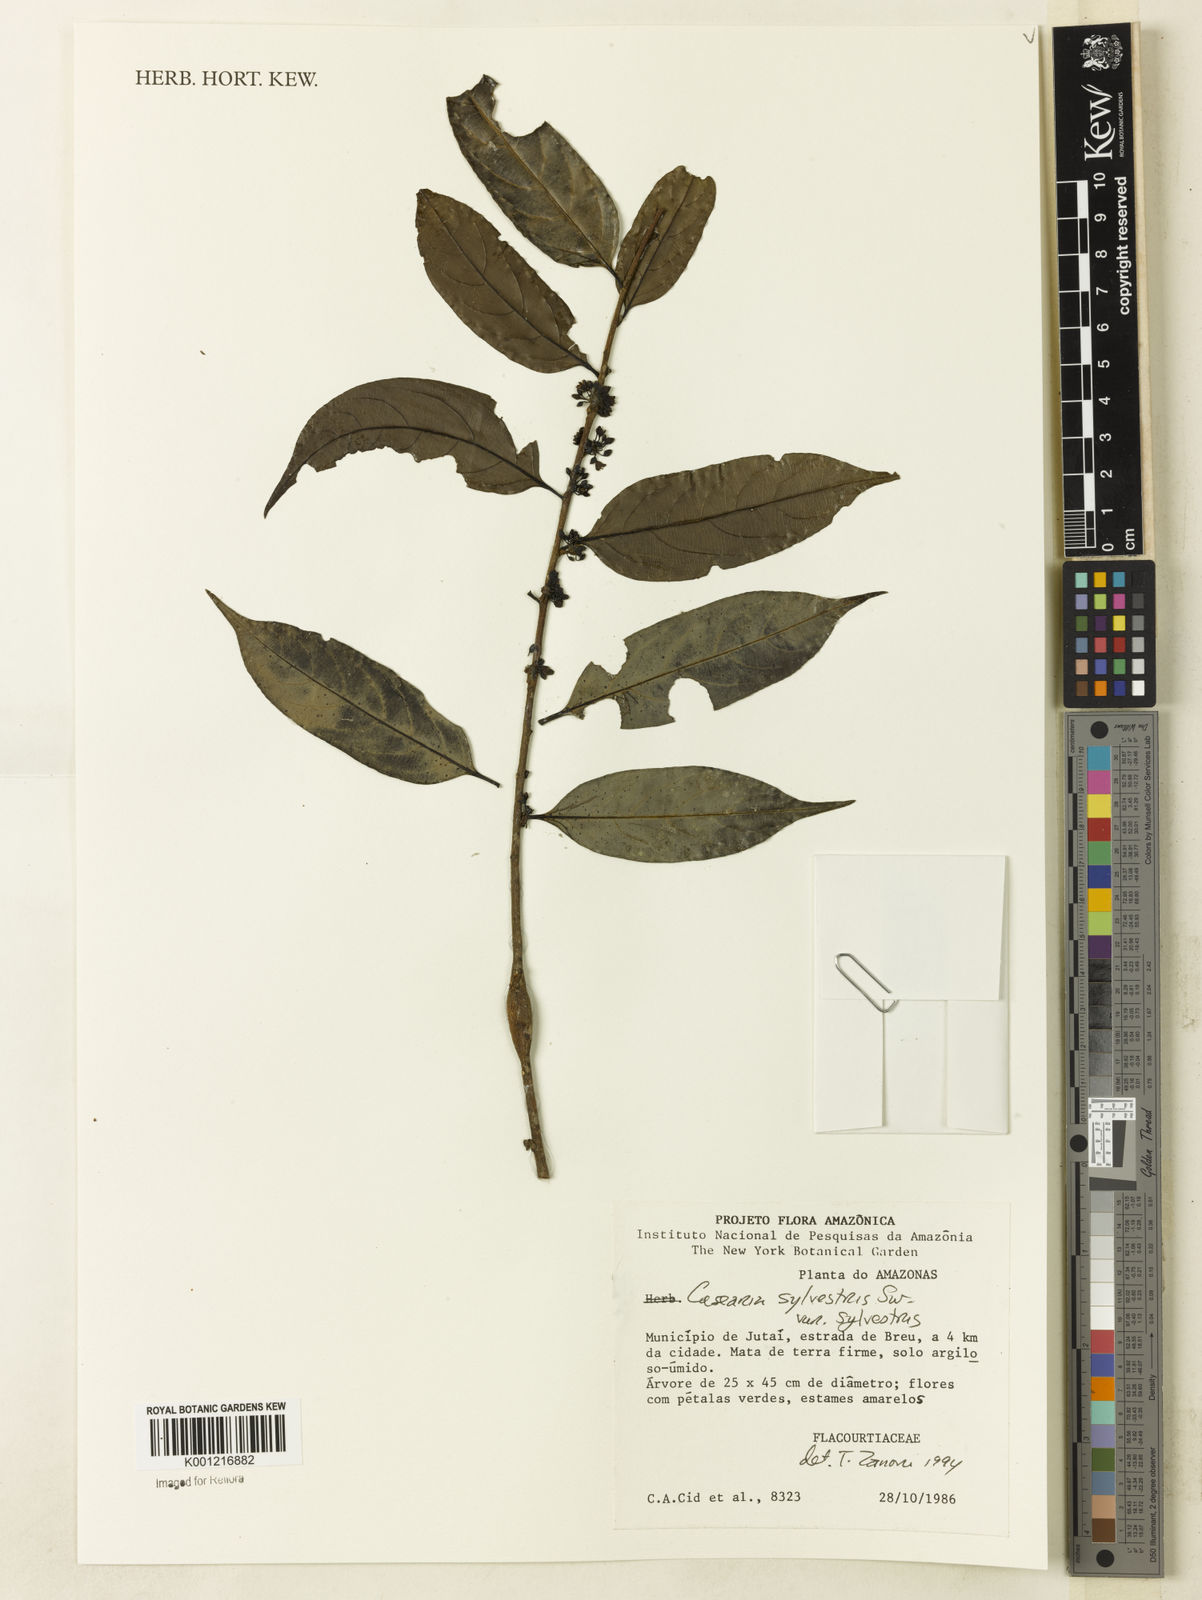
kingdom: Plantae
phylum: Tracheophyta
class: Magnoliopsida
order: Malpighiales
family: Salicaceae
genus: Casearia
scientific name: Casearia sylvestris
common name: Wild sage
